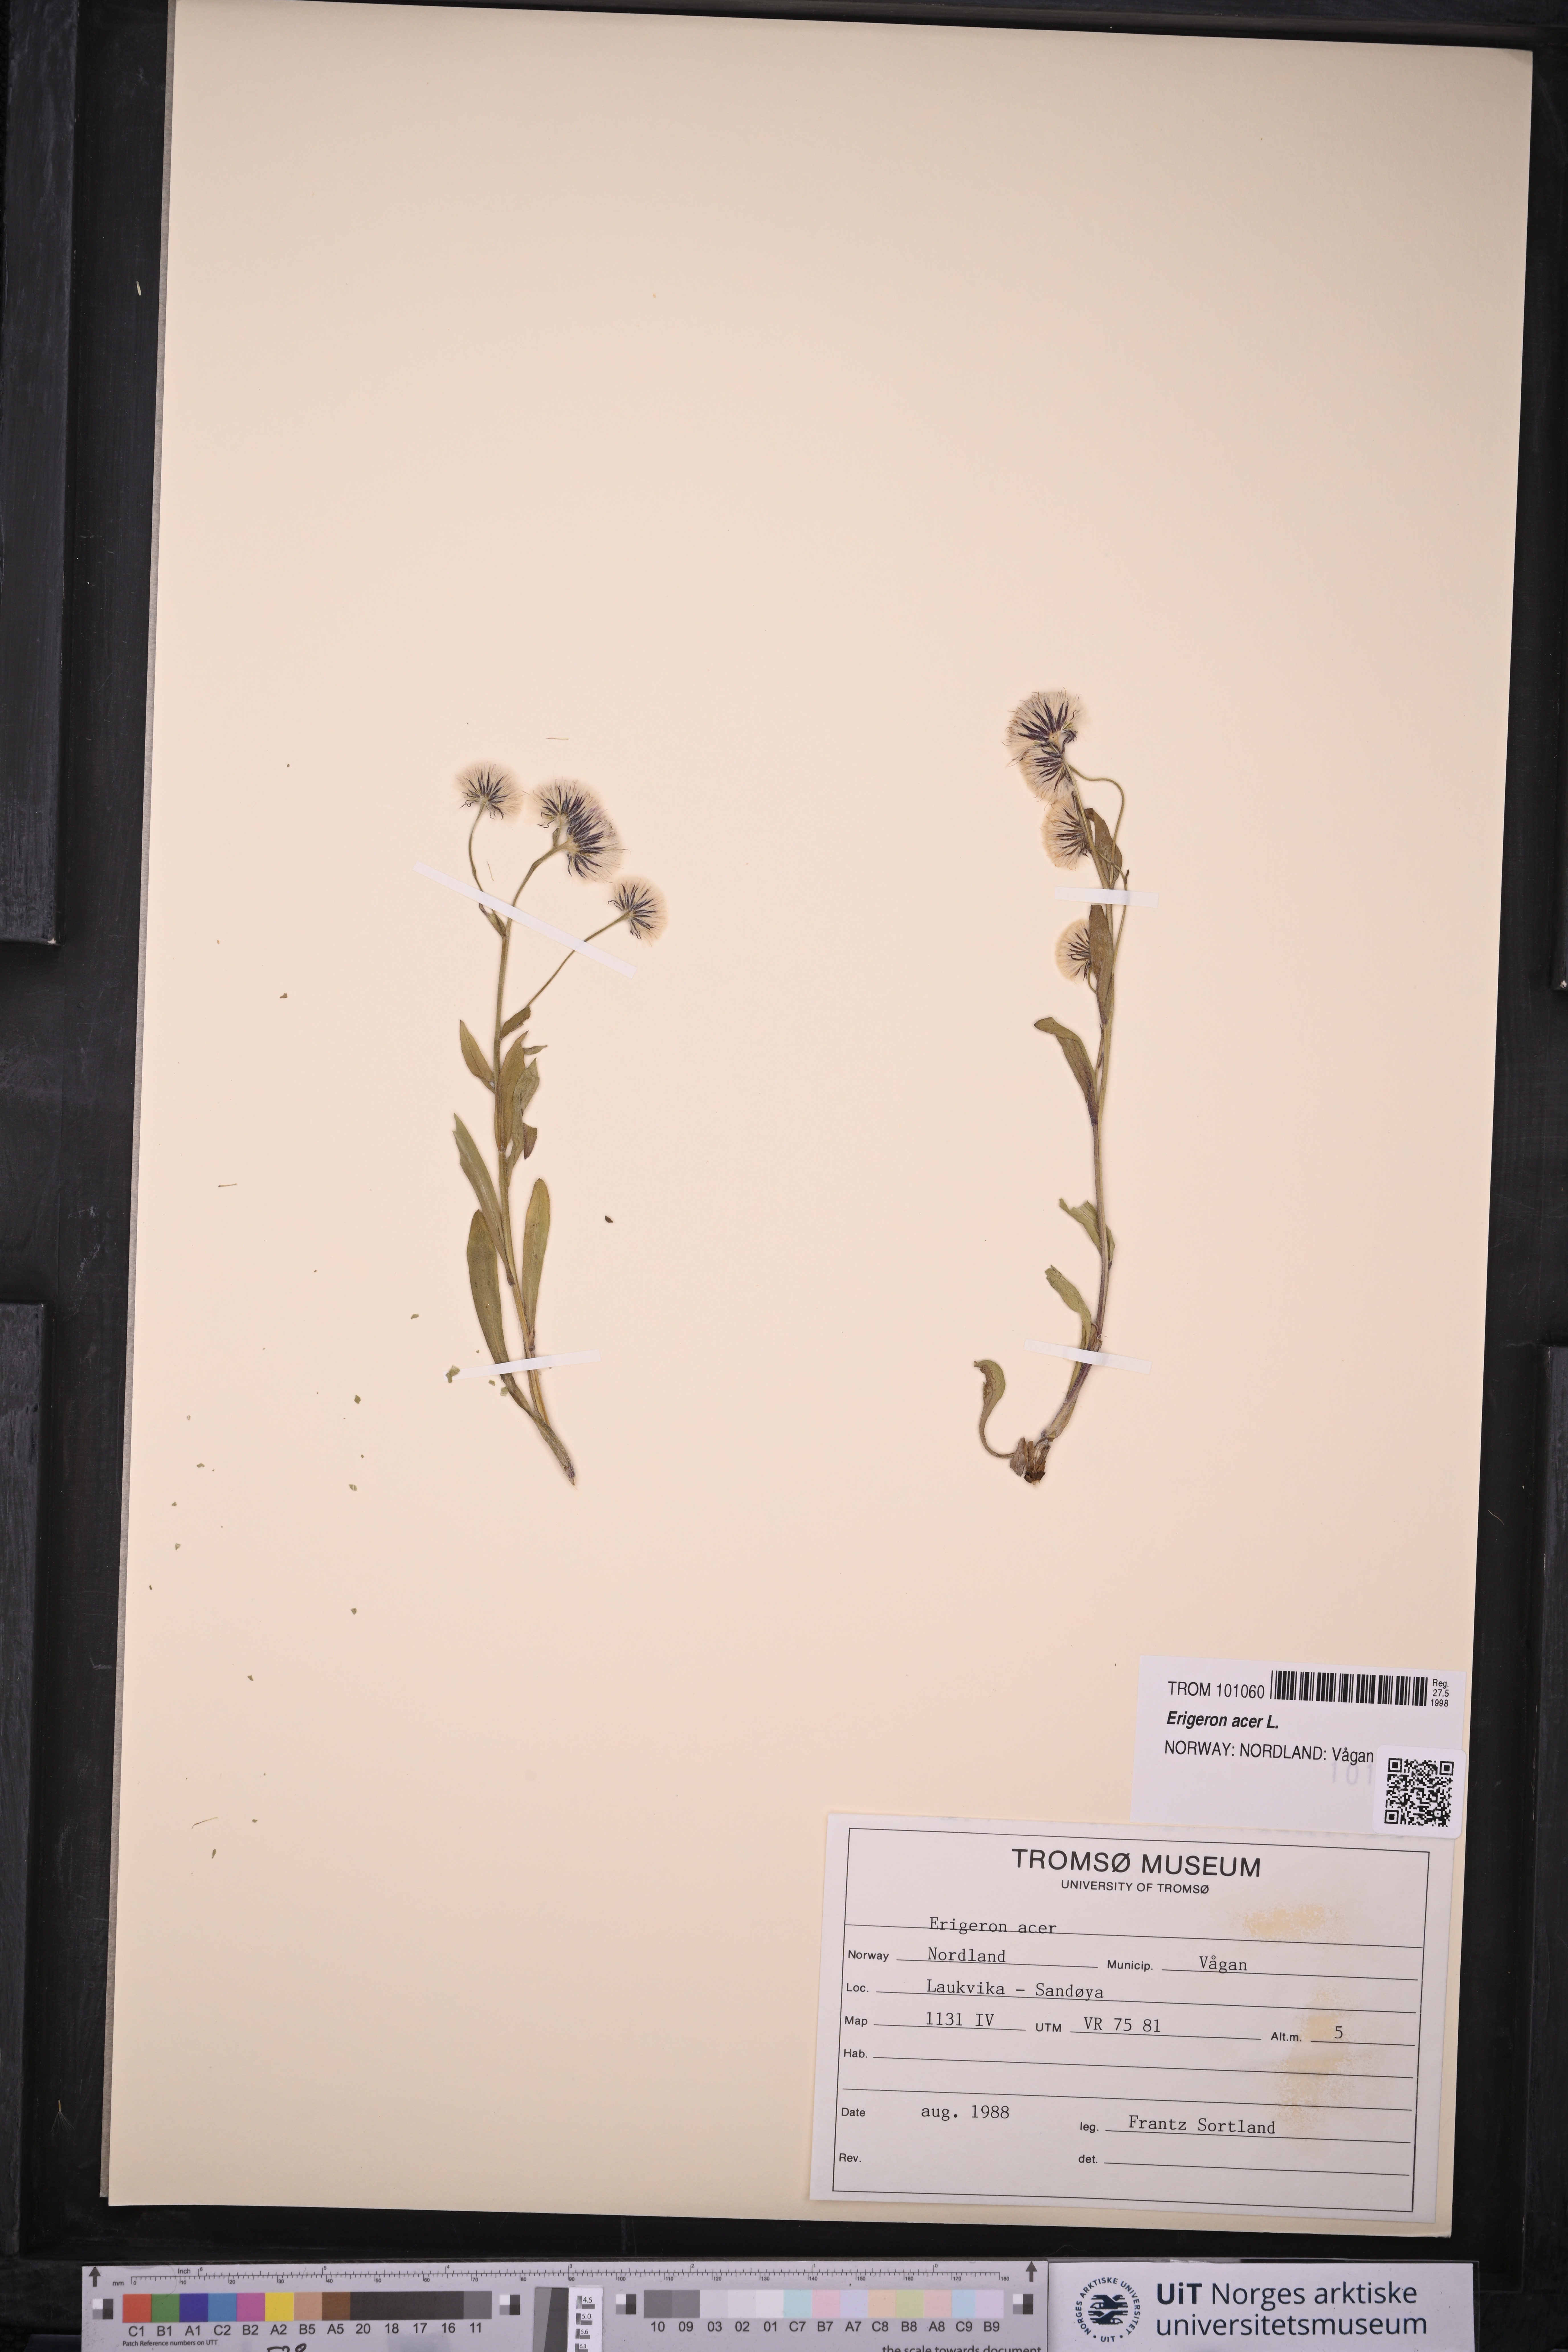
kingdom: Plantae
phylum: Tracheophyta
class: Magnoliopsida
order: Asterales
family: Asteraceae
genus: Erigeron
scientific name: Erigeron acris
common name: Blue fleabane
